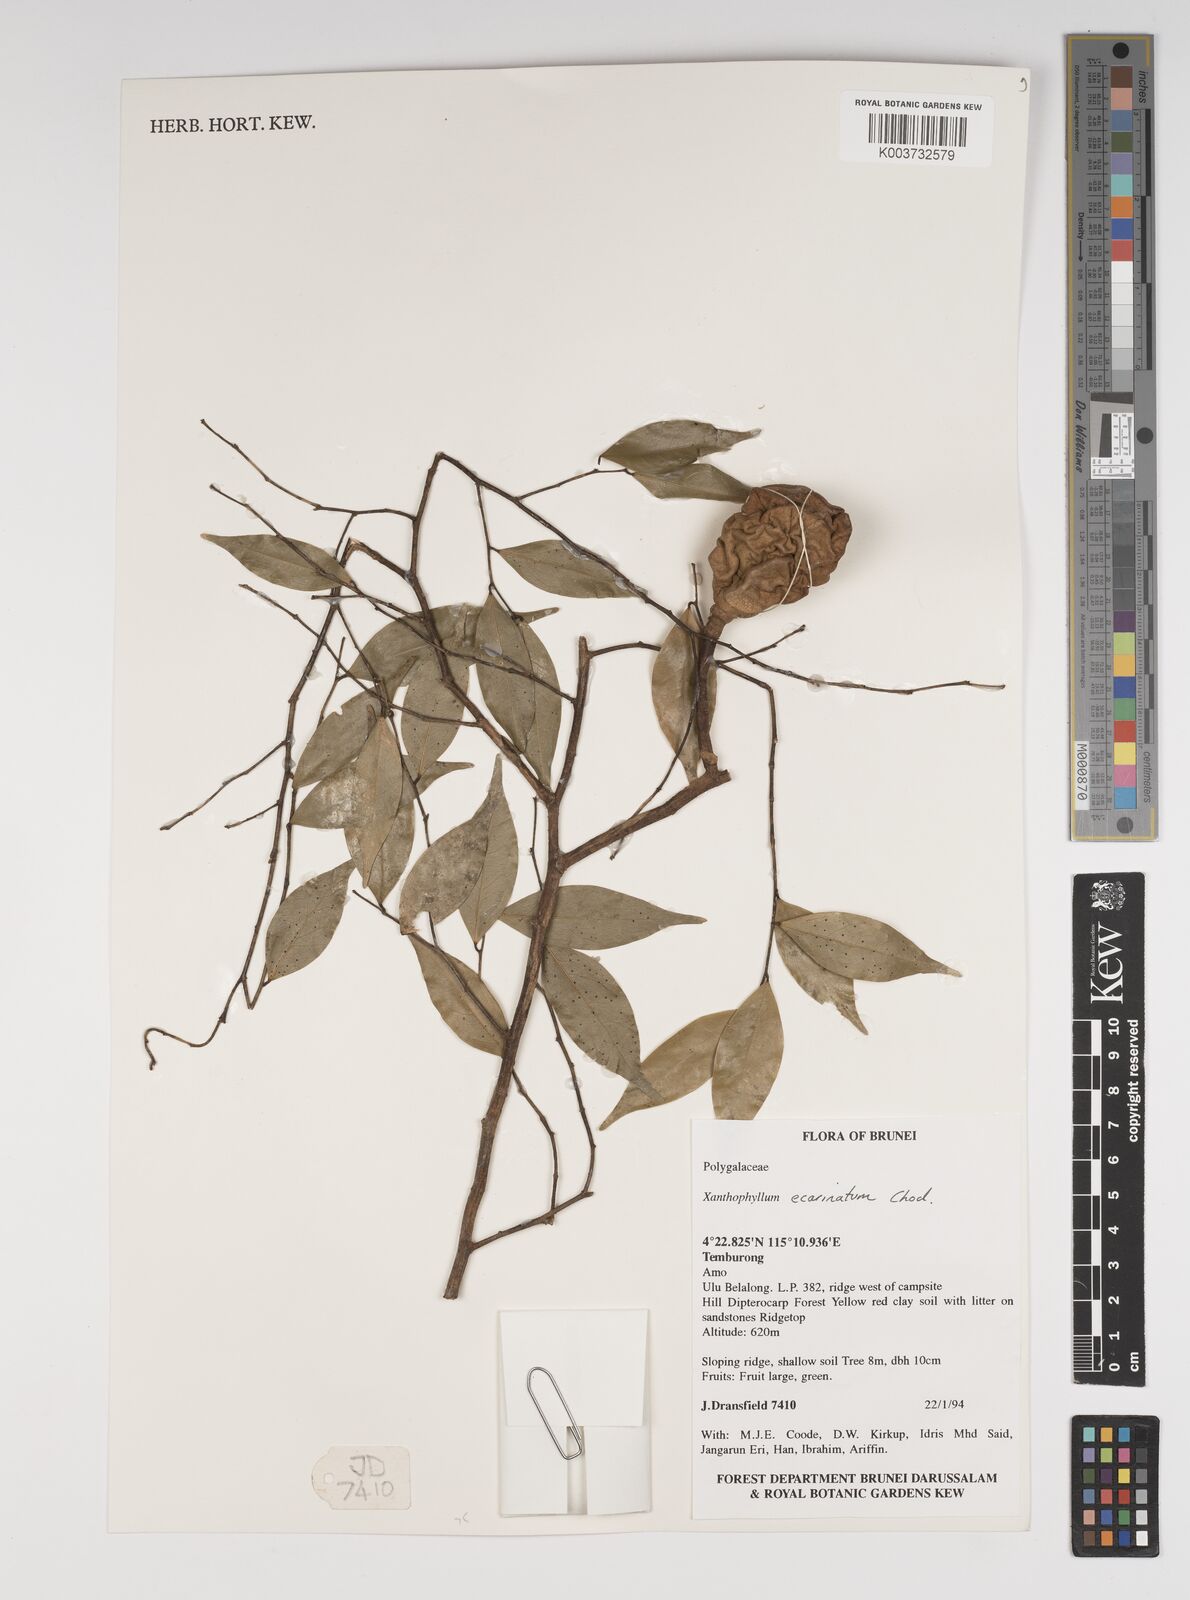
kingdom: Plantae
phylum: Tracheophyta
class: Magnoliopsida
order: Fabales
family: Polygalaceae
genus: Xanthophyllum
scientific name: Xanthophyllum ecarinatum
